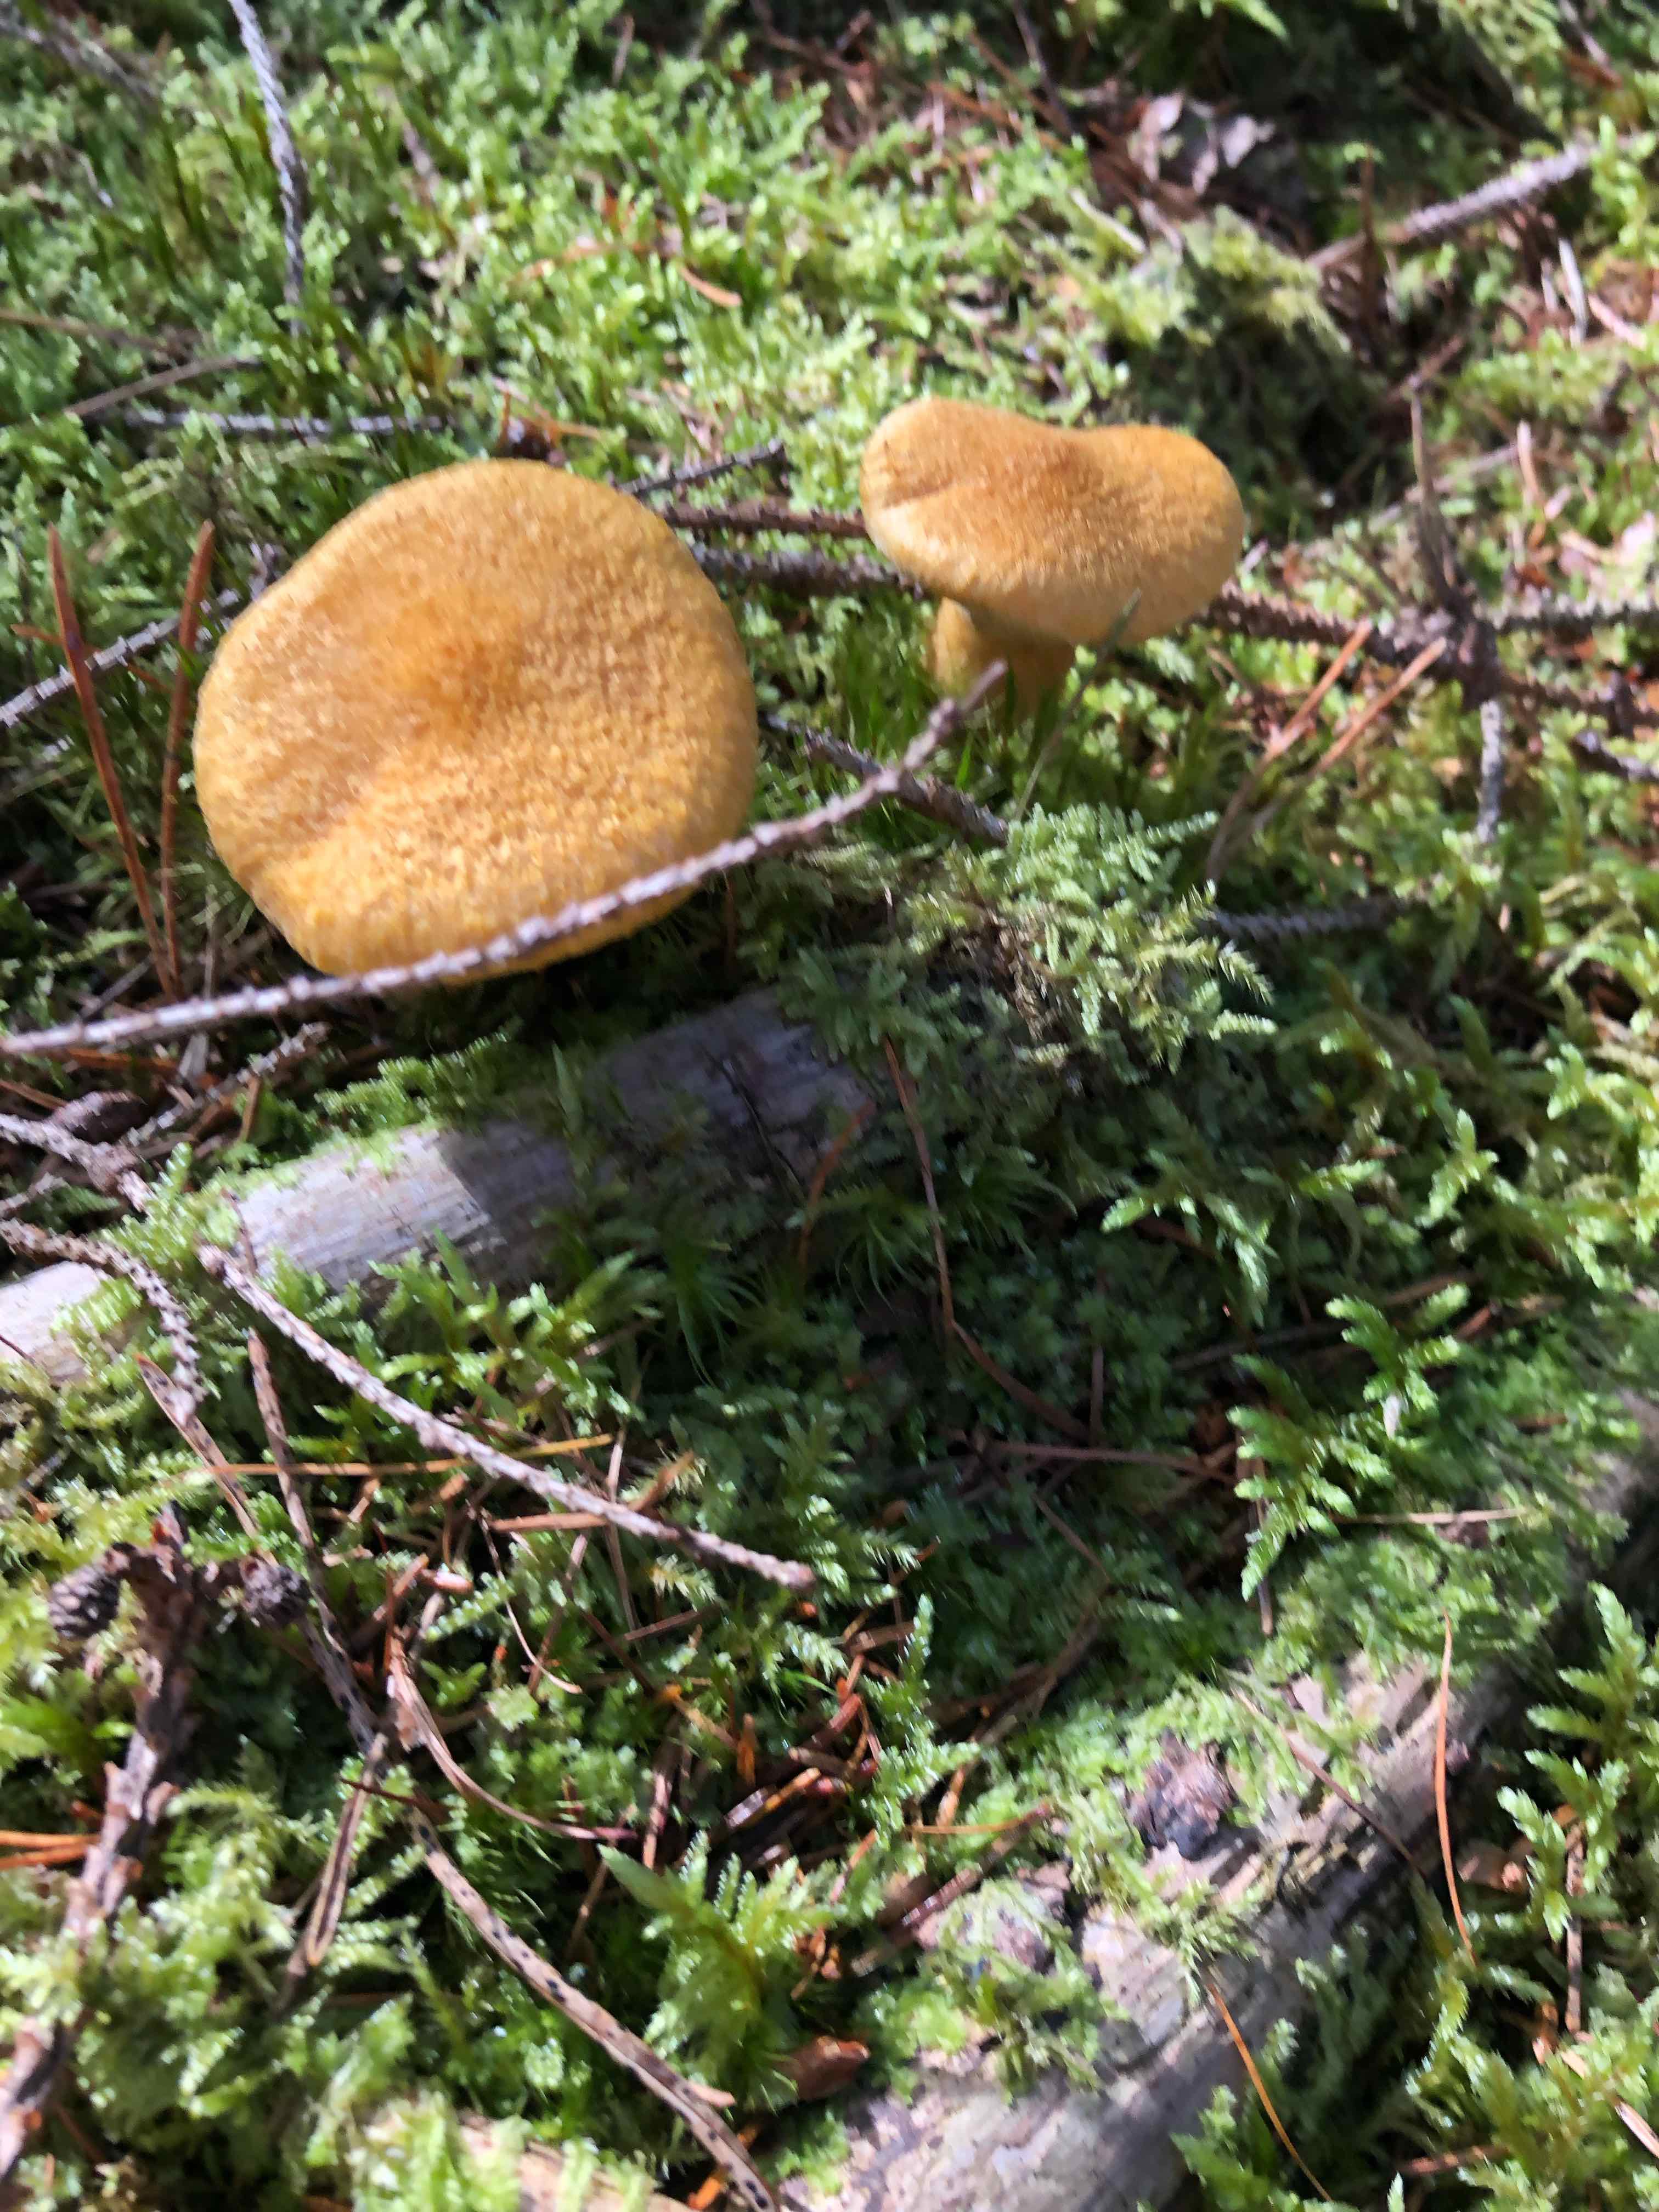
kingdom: Fungi
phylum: Basidiomycota
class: Agaricomycetes
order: Boletales
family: Suillaceae
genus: Suillus
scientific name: Suillus cavipes
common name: hulstokket slimrørhat, gul form
